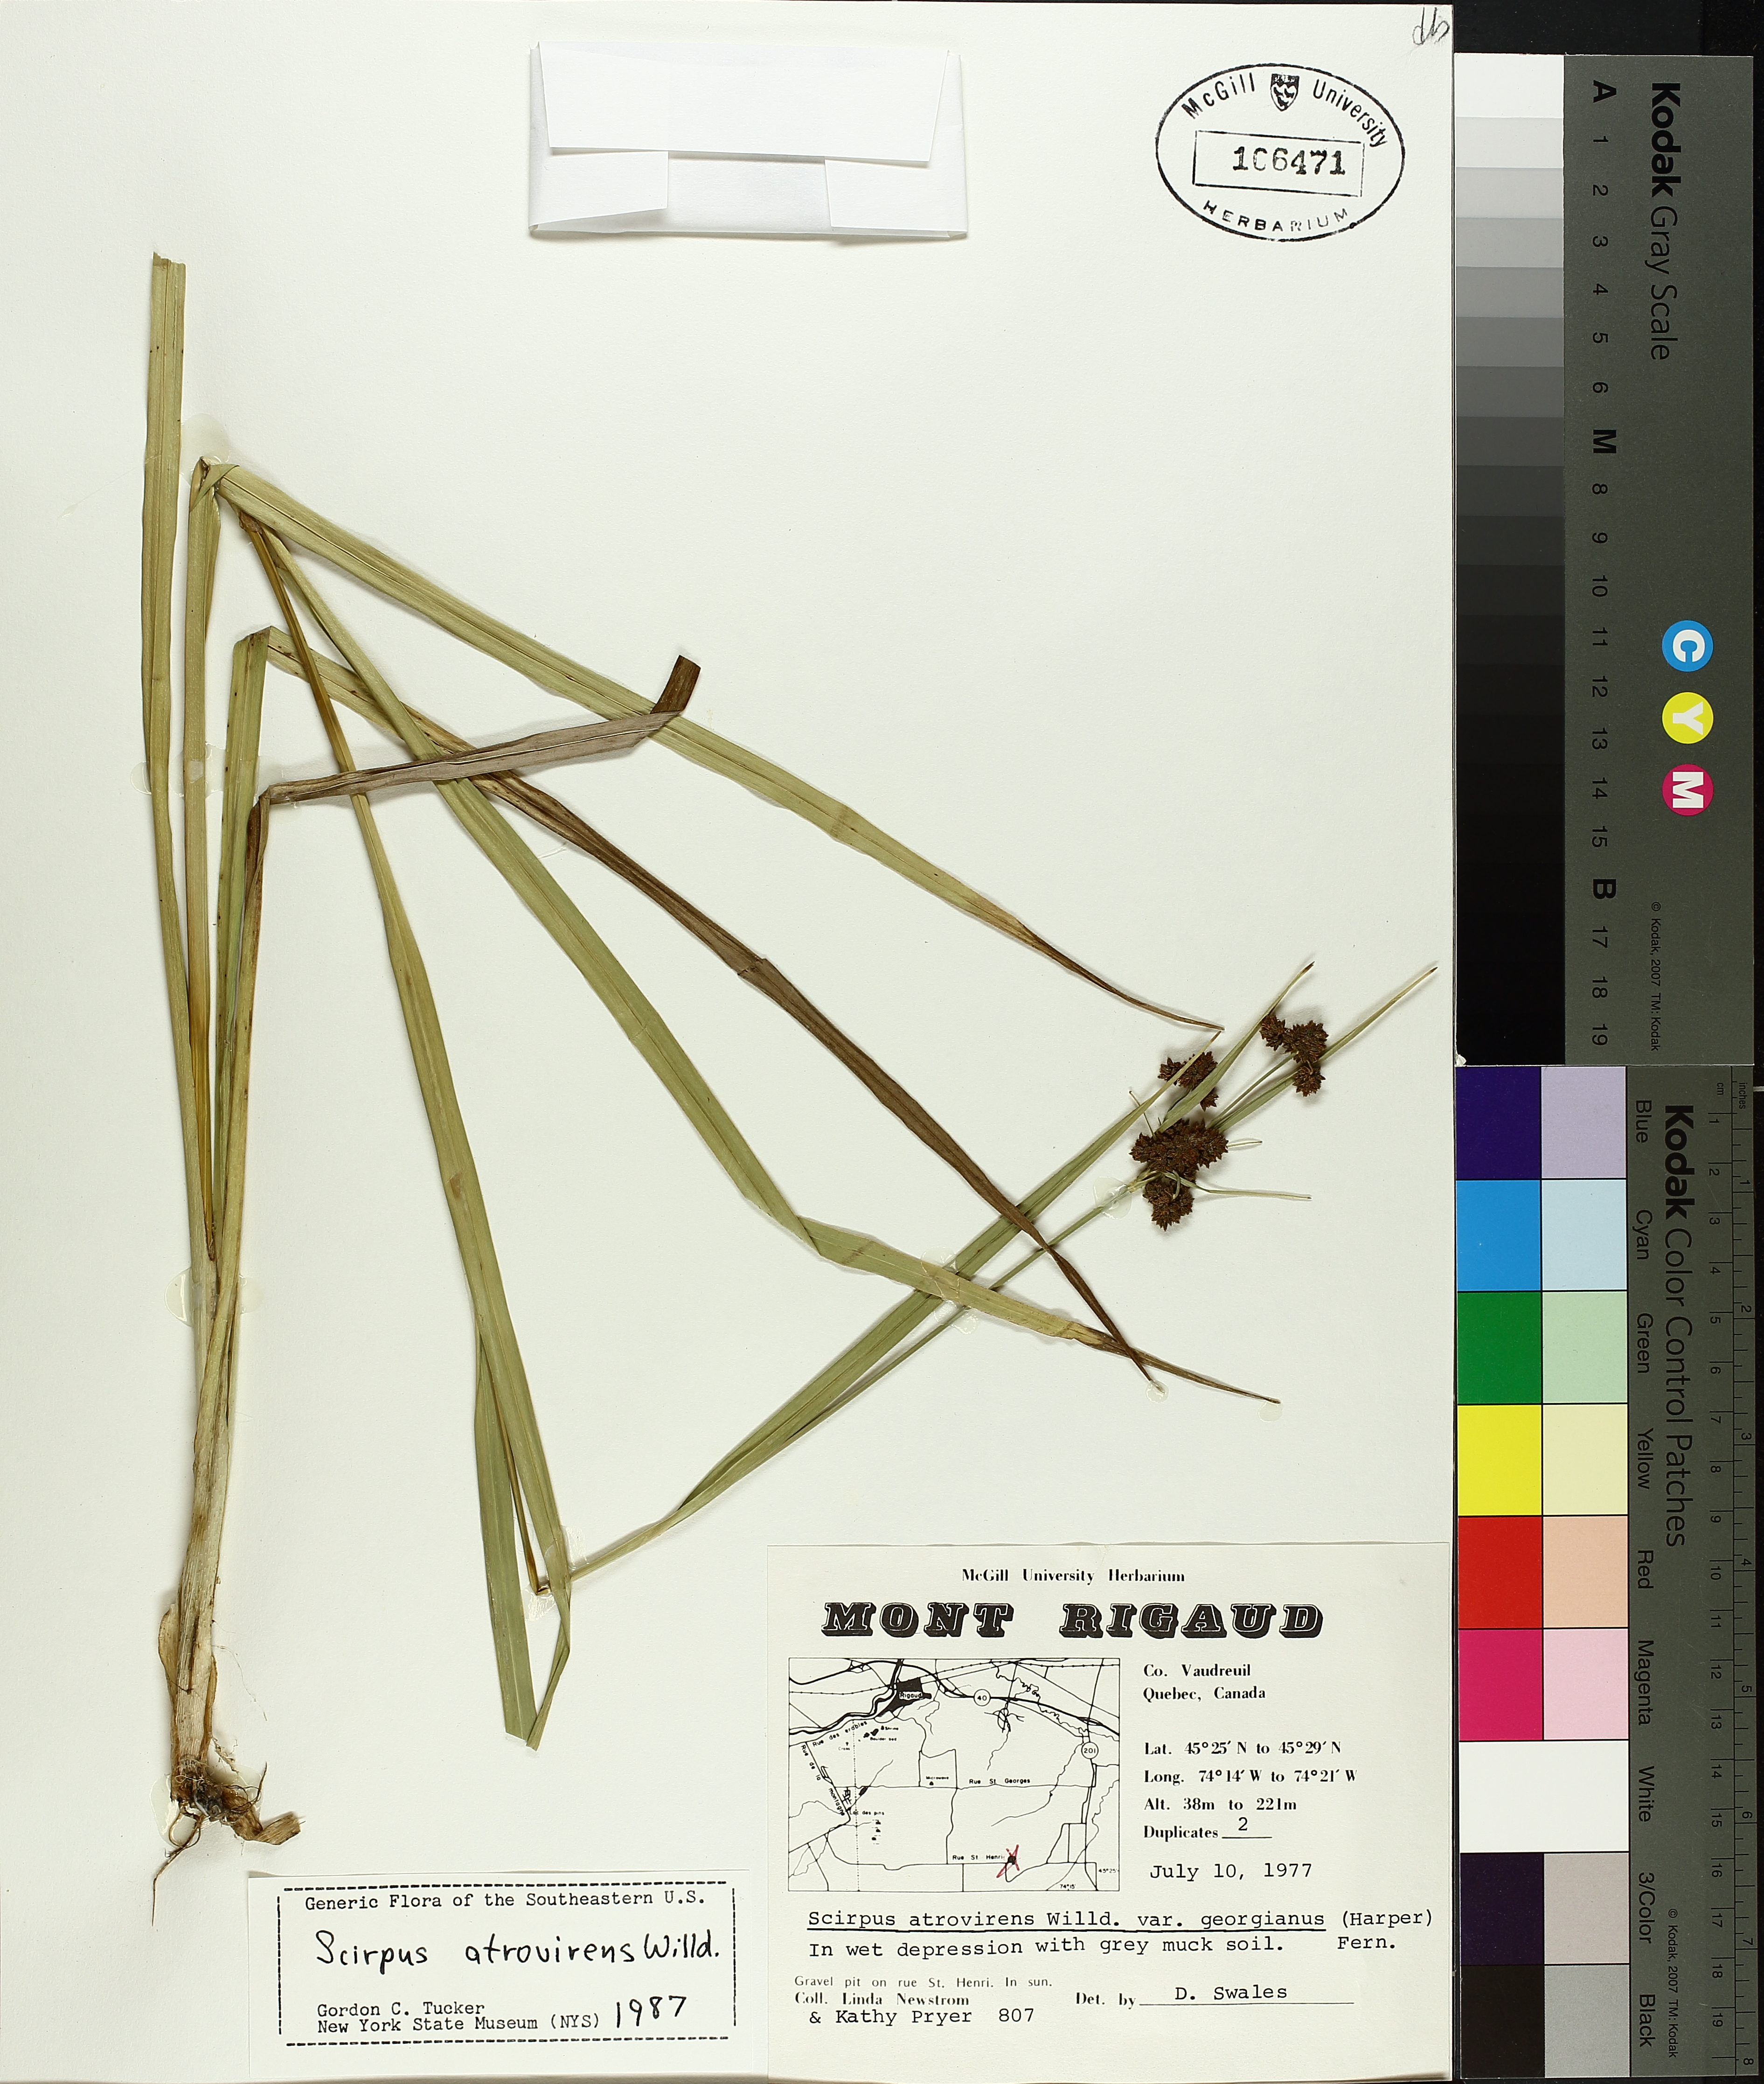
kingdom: Plantae
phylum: Tracheophyta
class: Liliopsida
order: Poales
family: Cyperaceae
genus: Scirpus
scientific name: Scirpus georgianus
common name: Bristleless dark-green bulrush
